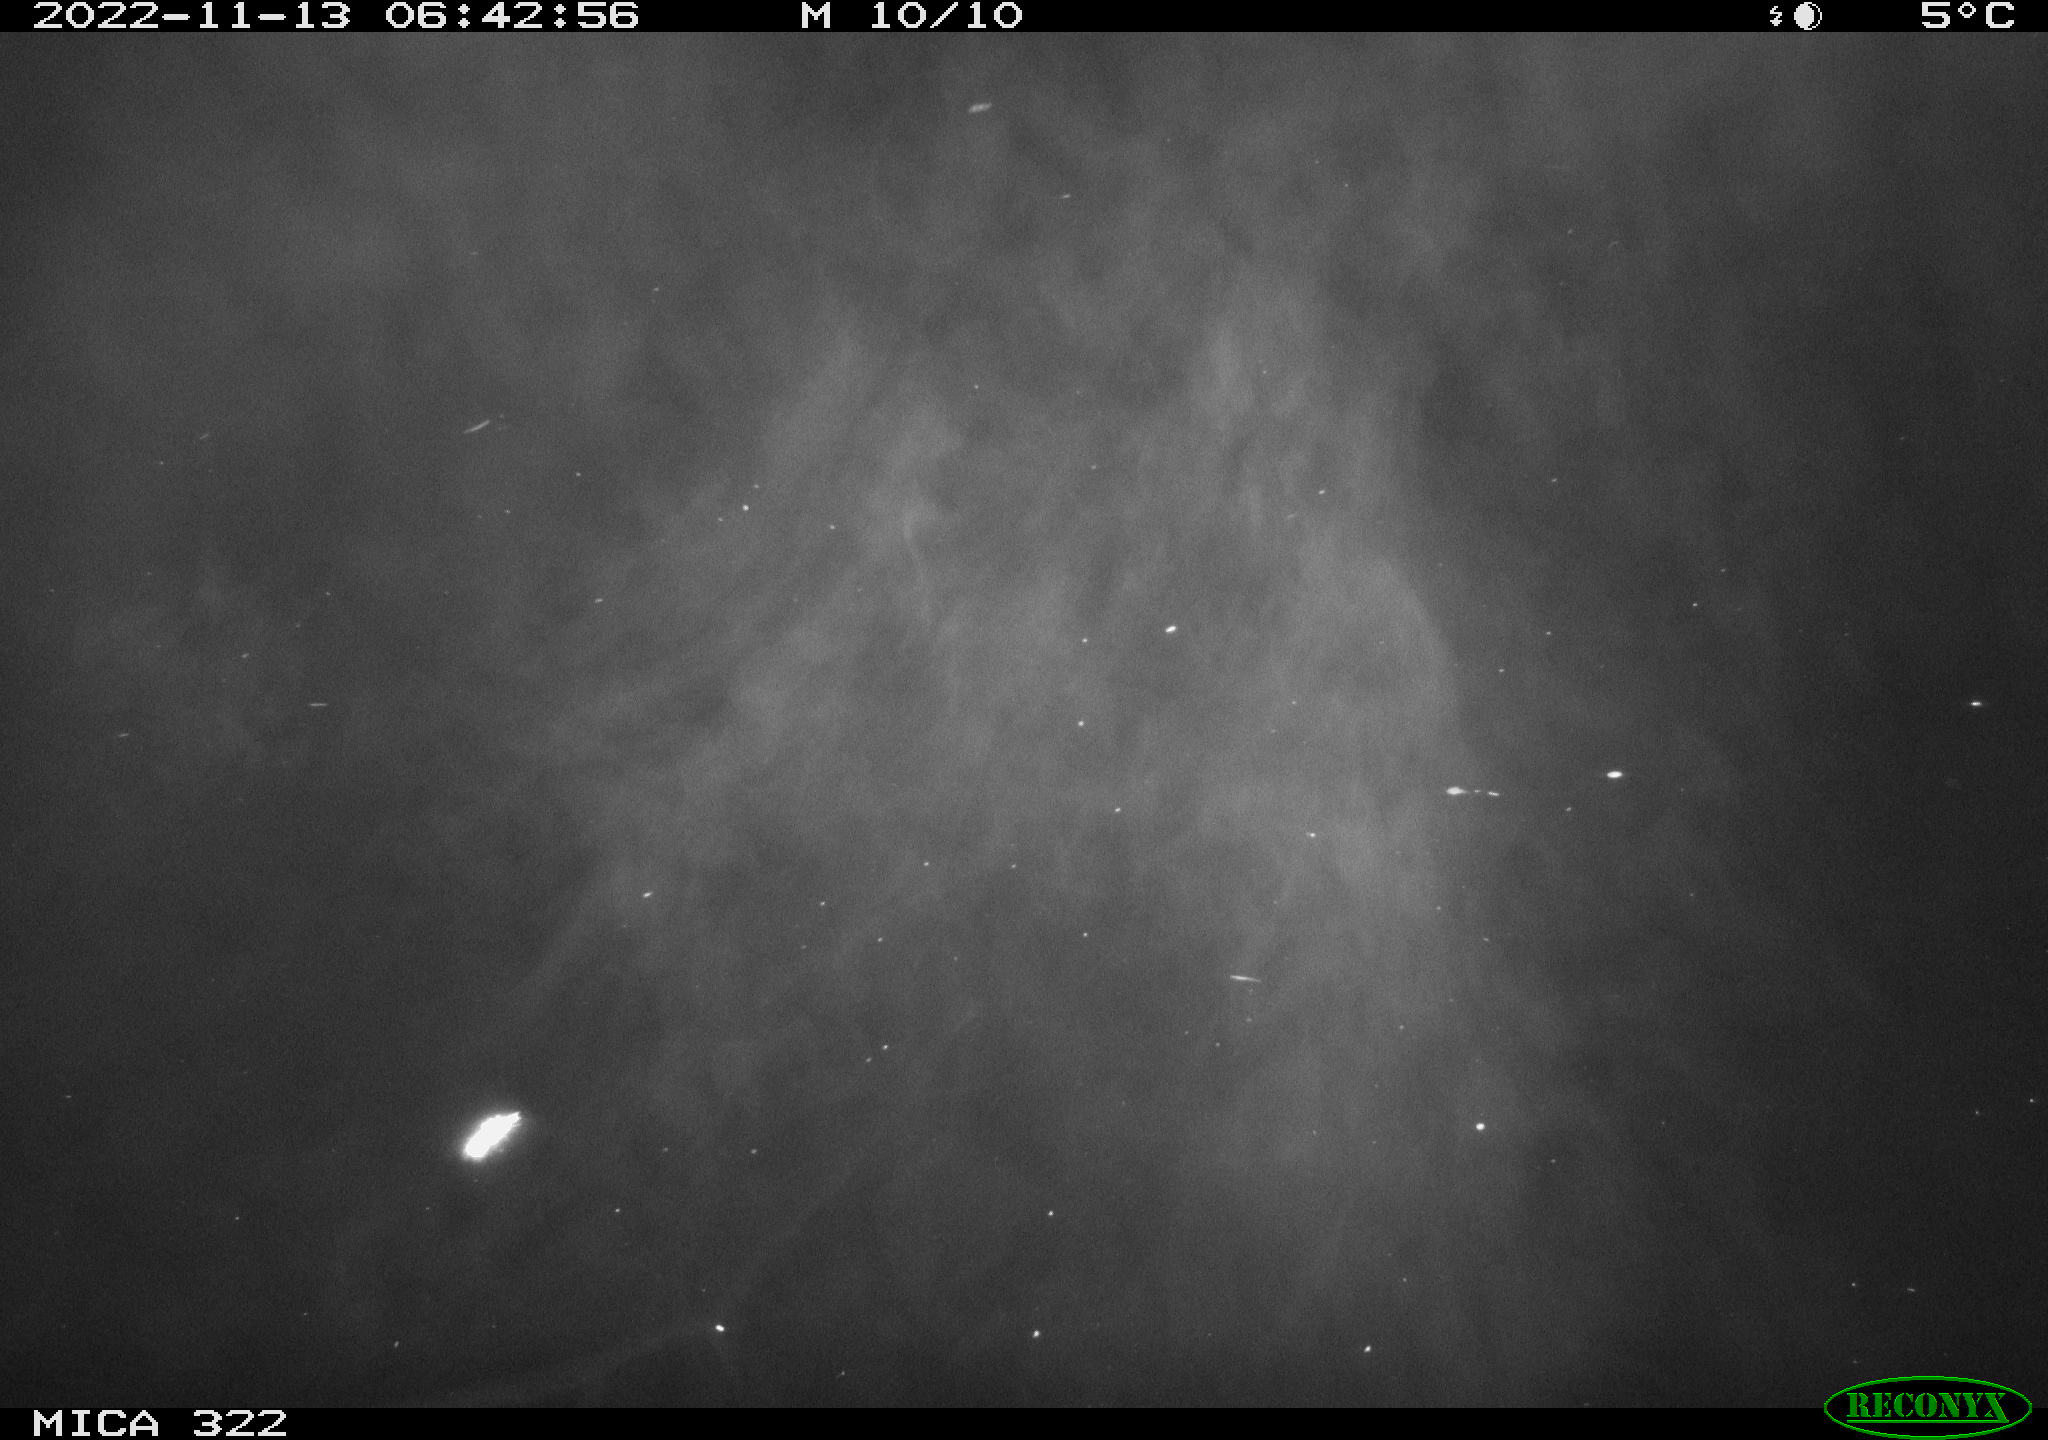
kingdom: Animalia
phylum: Chordata
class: Mammalia
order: Rodentia
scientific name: Rodentia
